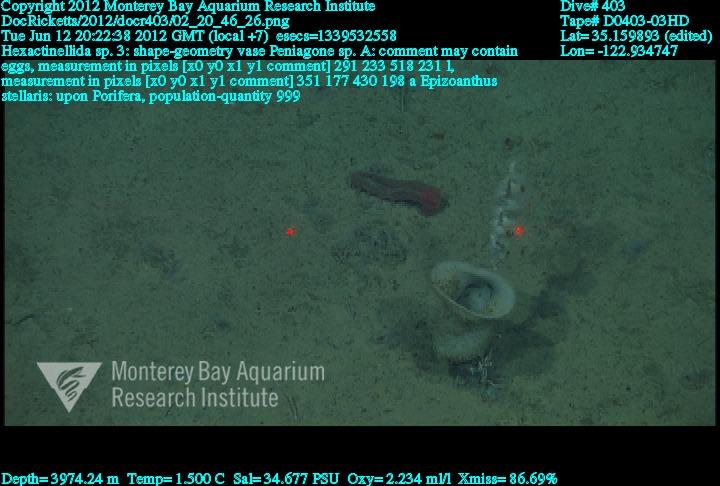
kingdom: Animalia
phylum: Porifera
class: Hexactinellida
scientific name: Hexactinellida
